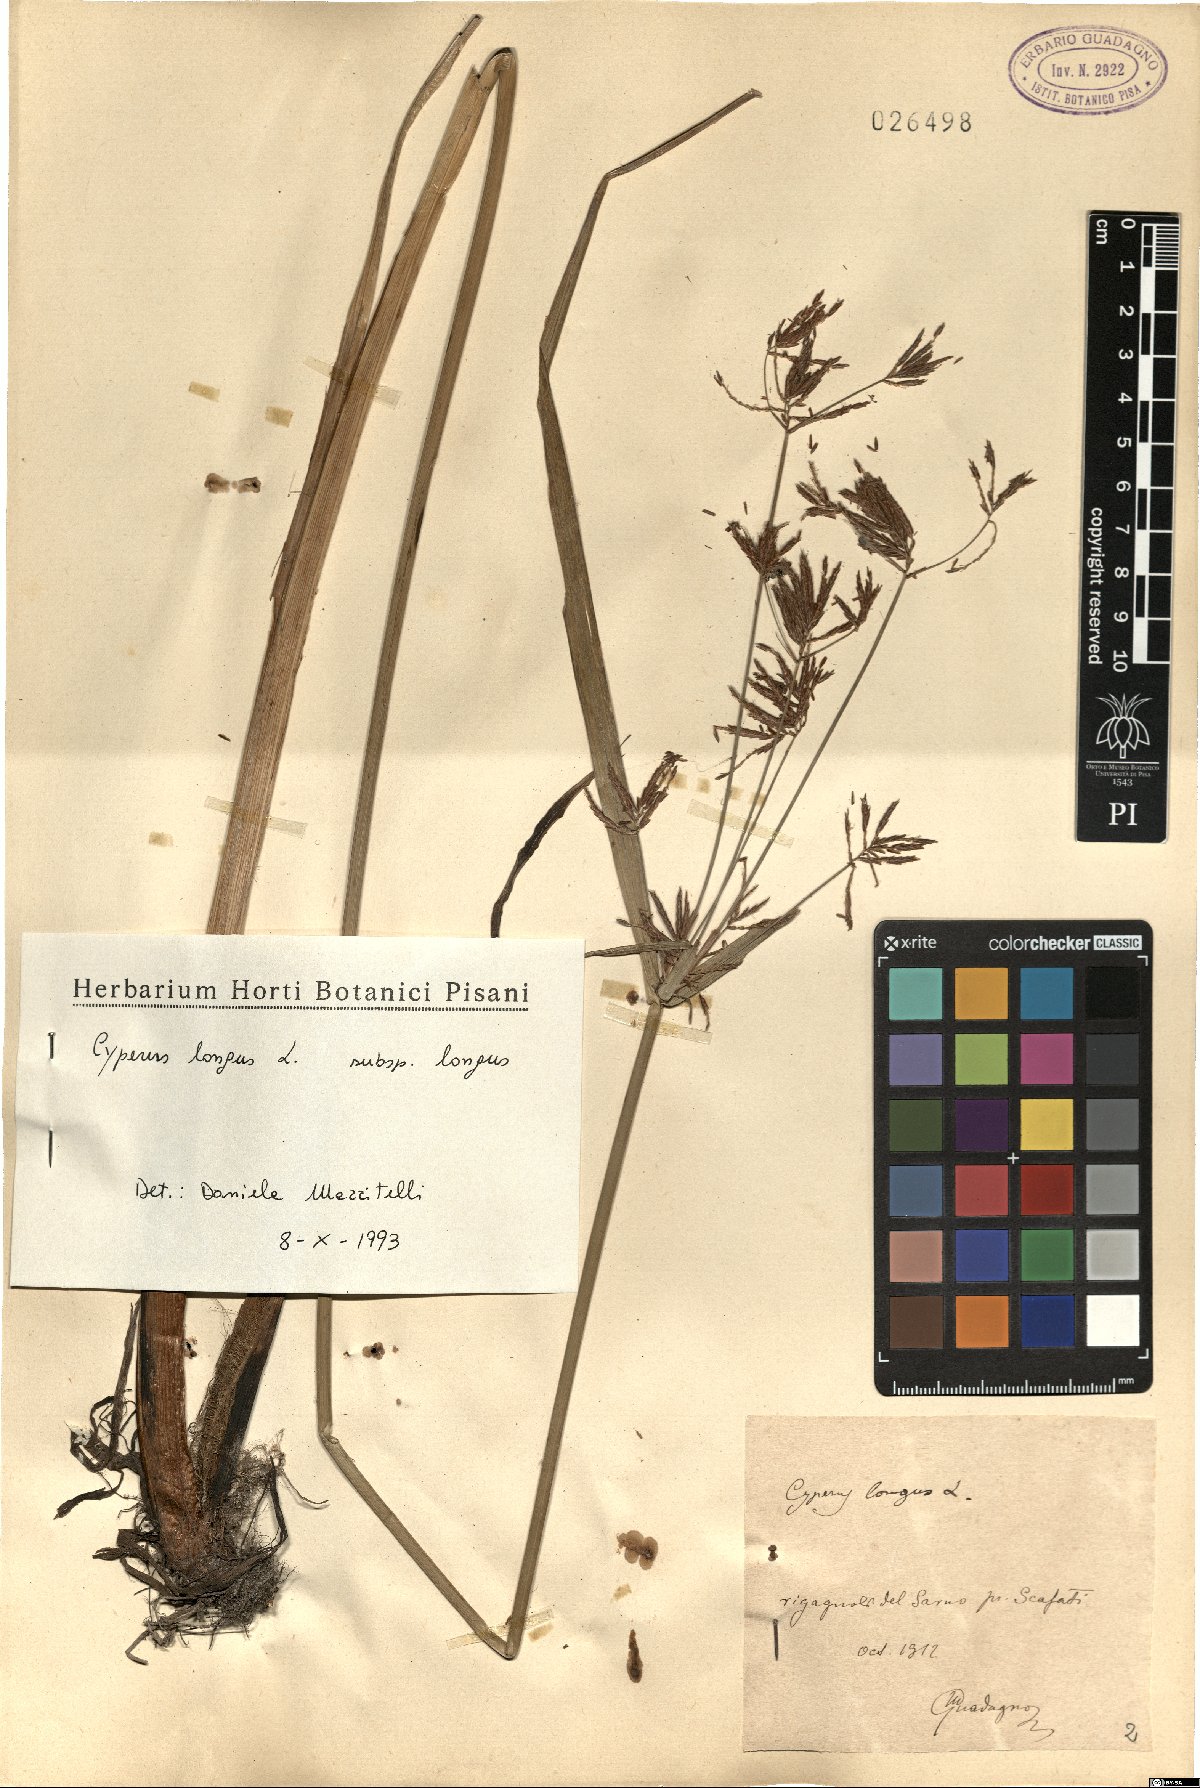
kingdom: Plantae
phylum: Tracheophyta
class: Liliopsida
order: Poales
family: Cyperaceae
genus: Cyperus
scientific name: Cyperus longus
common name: Galingale
